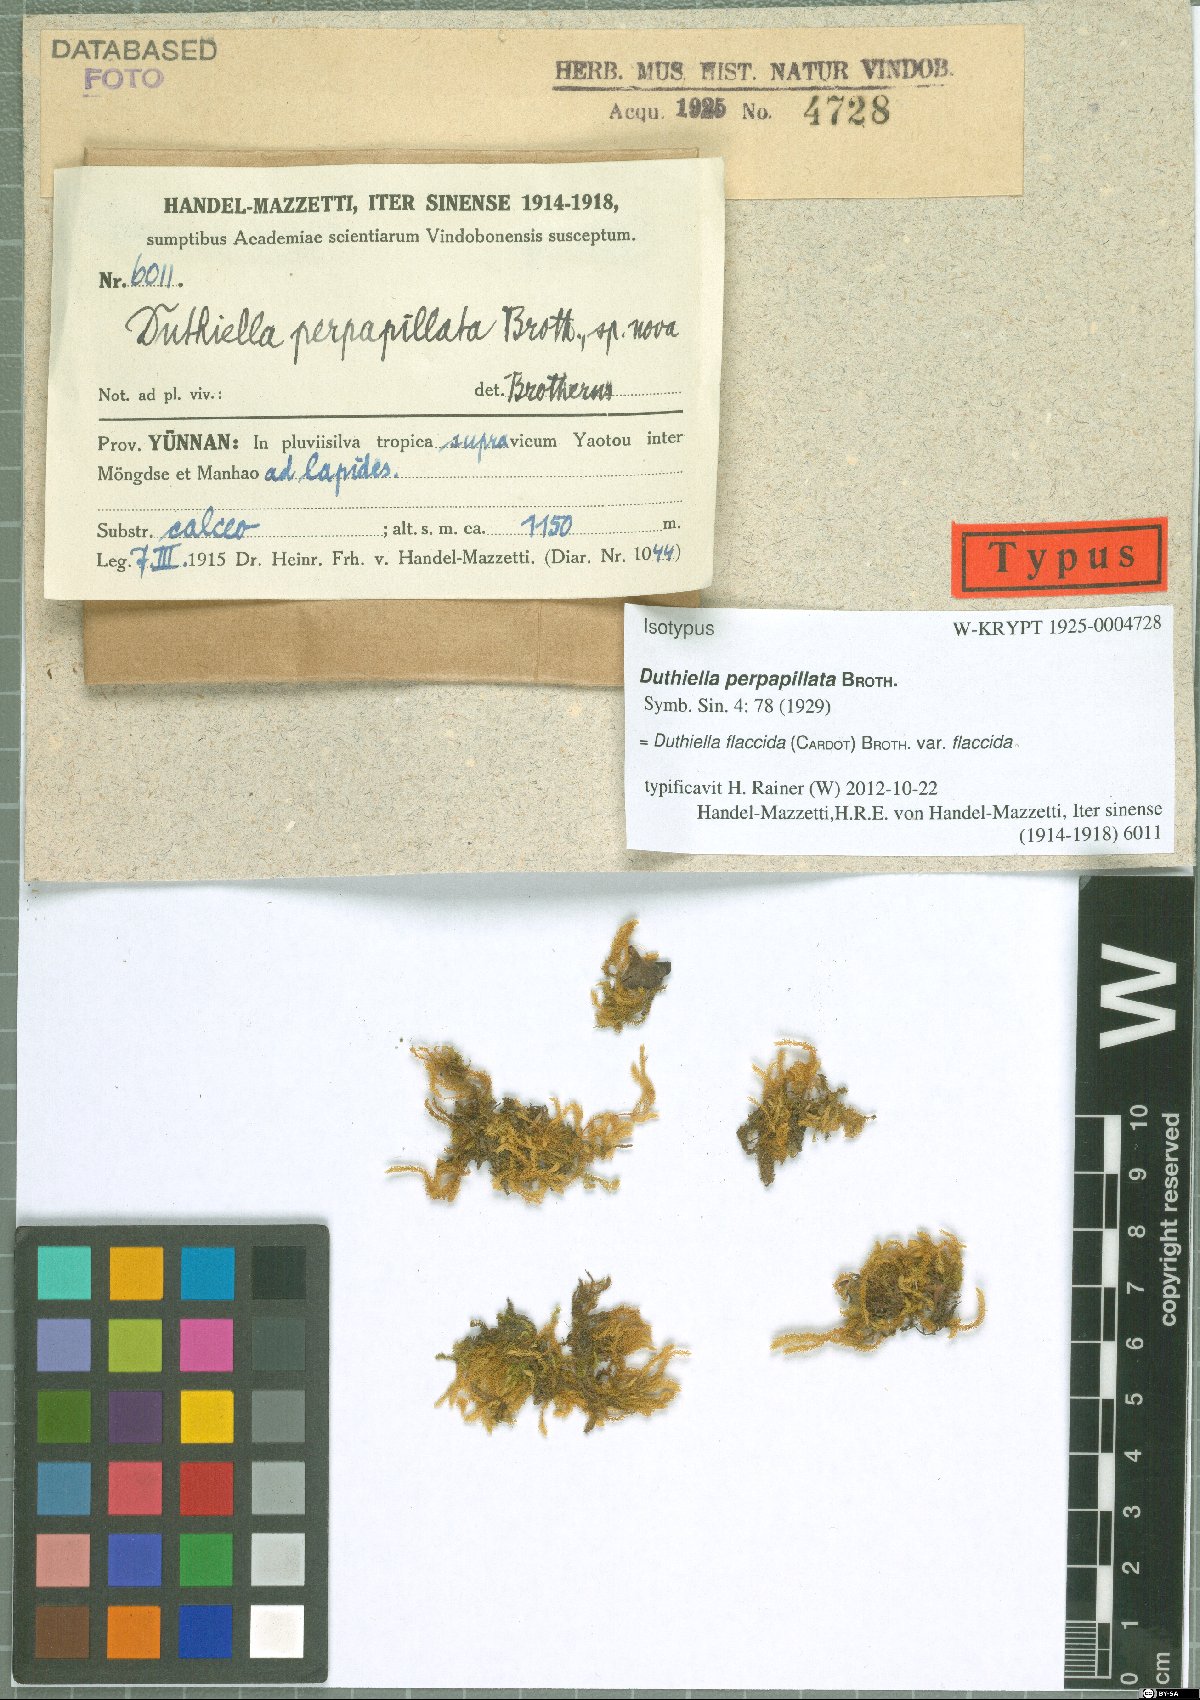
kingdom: Plantae
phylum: Bryophyta
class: Bryopsida
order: Hypnales
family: Meteoriaceae
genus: Duthiella
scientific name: Duthiella flaccida
